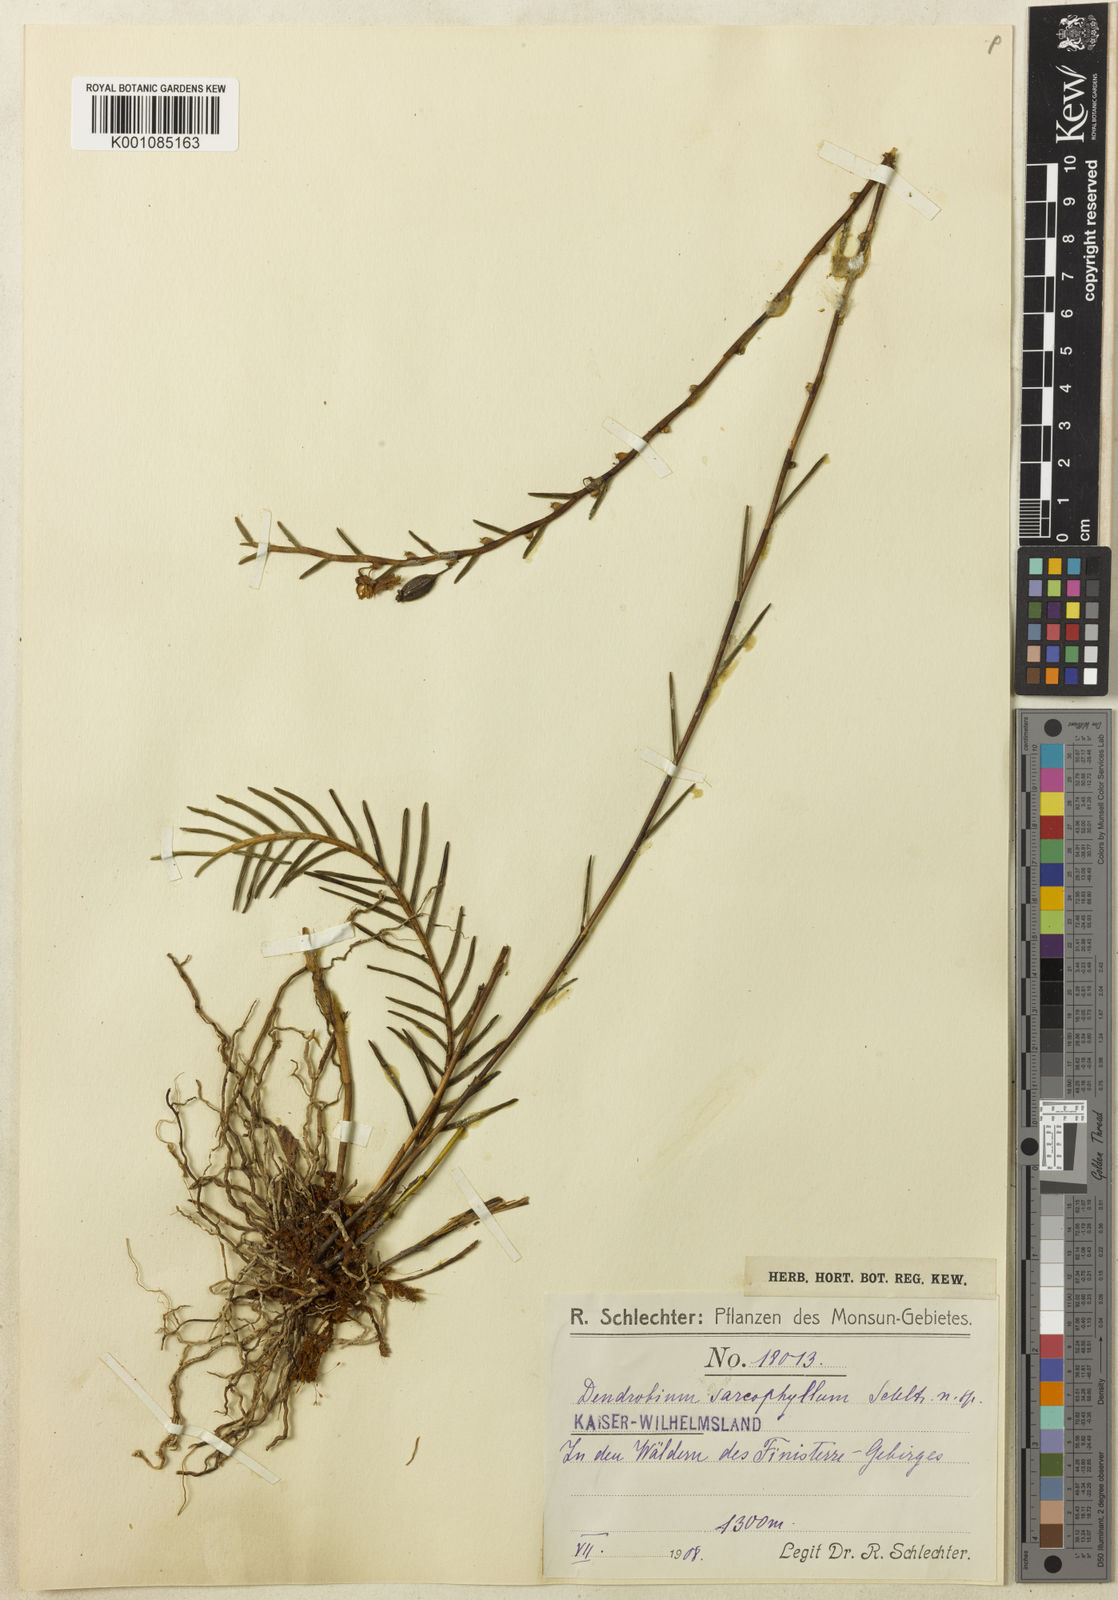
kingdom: Plantae
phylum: Tracheophyta
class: Liliopsida
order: Asparagales
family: Orchidaceae
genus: Dendrobium
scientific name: Dendrobium sarcophyllum
